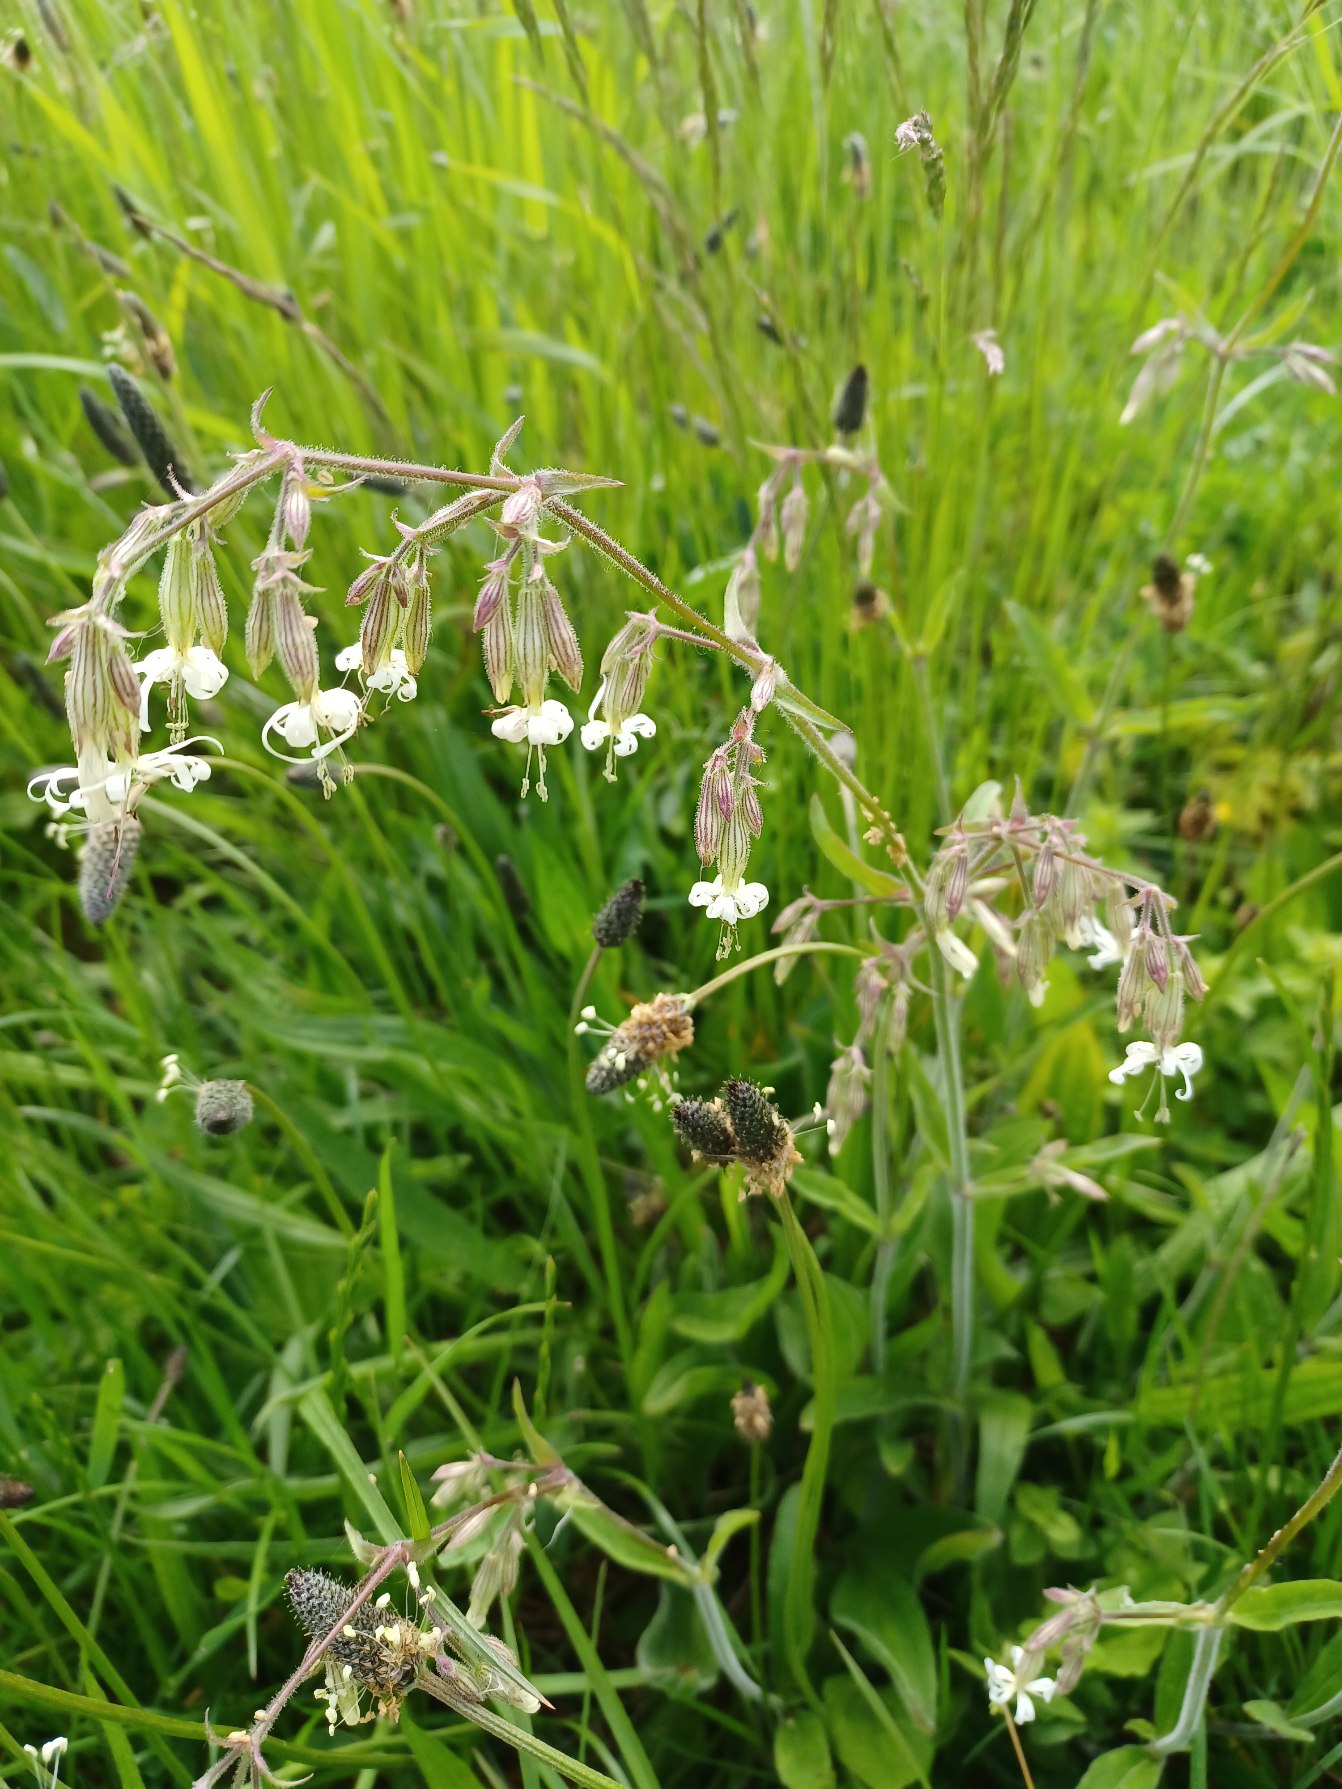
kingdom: Plantae
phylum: Tracheophyta
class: Magnoliopsida
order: Caryophyllales
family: Caryophyllaceae
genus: Silene
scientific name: Silene nutans
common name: Nikkende limurt
